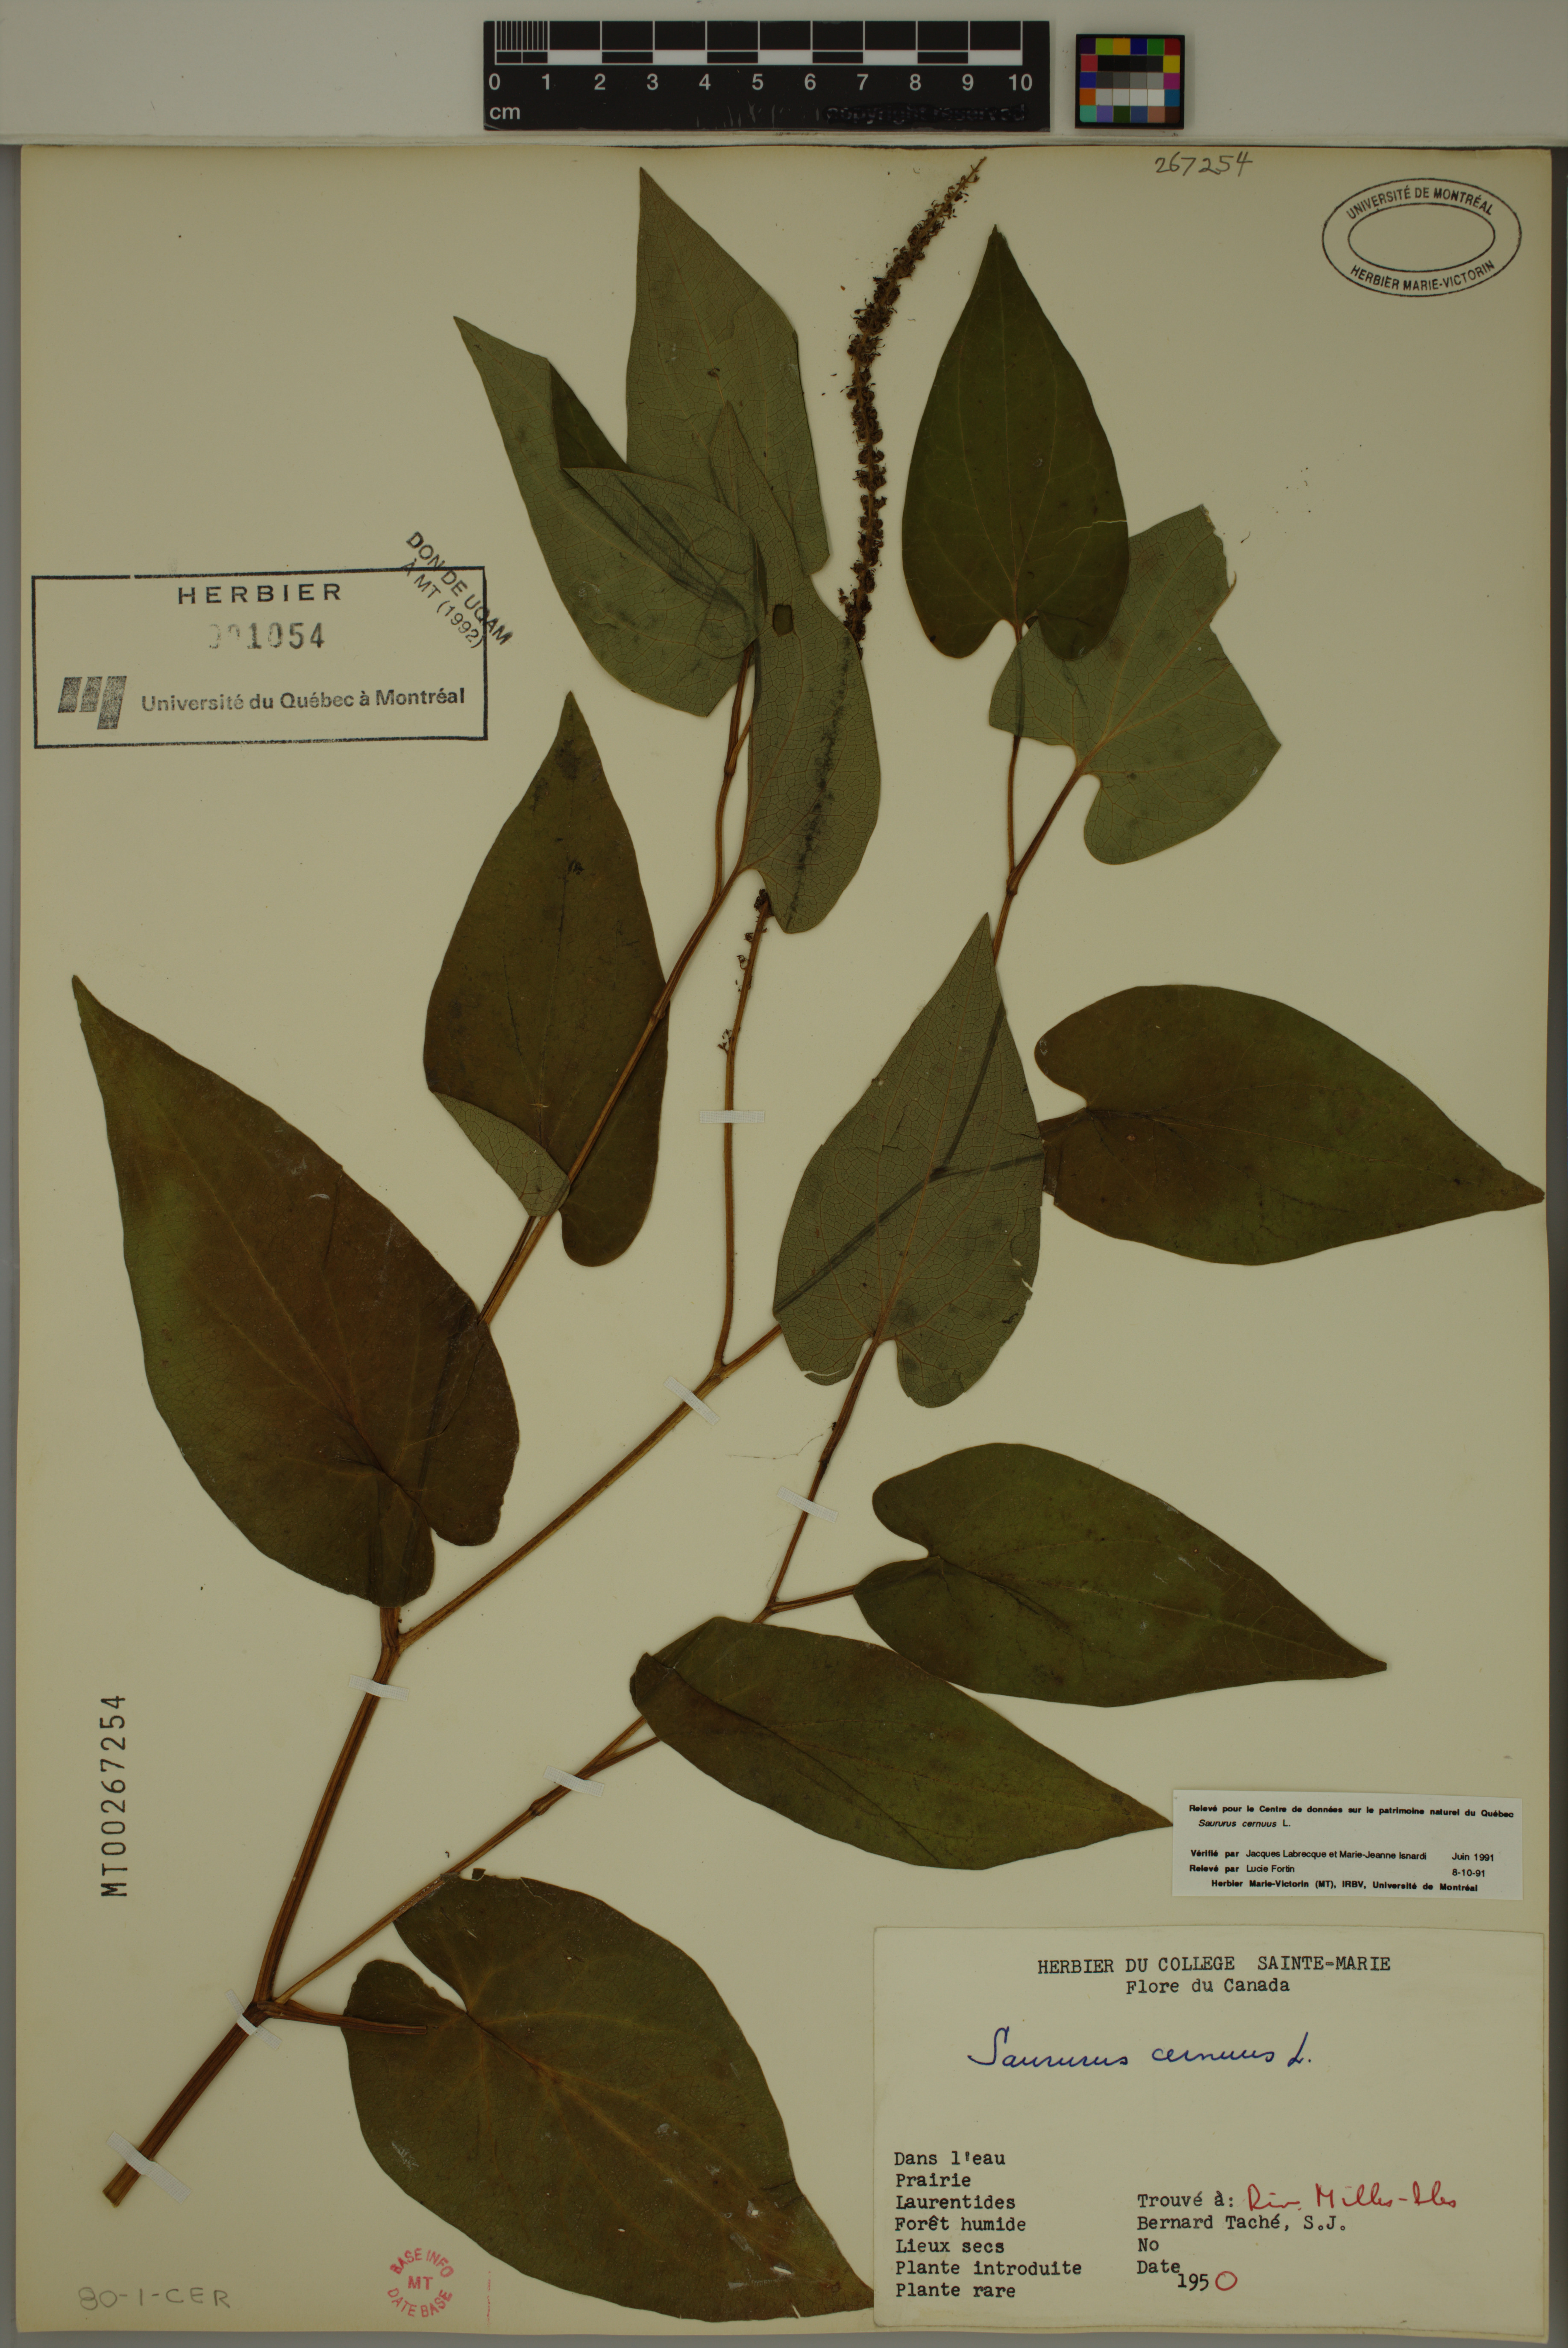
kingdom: Plantae
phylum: Tracheophyta
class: Magnoliopsida
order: Piperales
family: Saururaceae
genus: Saururus
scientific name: Saururus cernuus
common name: Lizard's-tail
